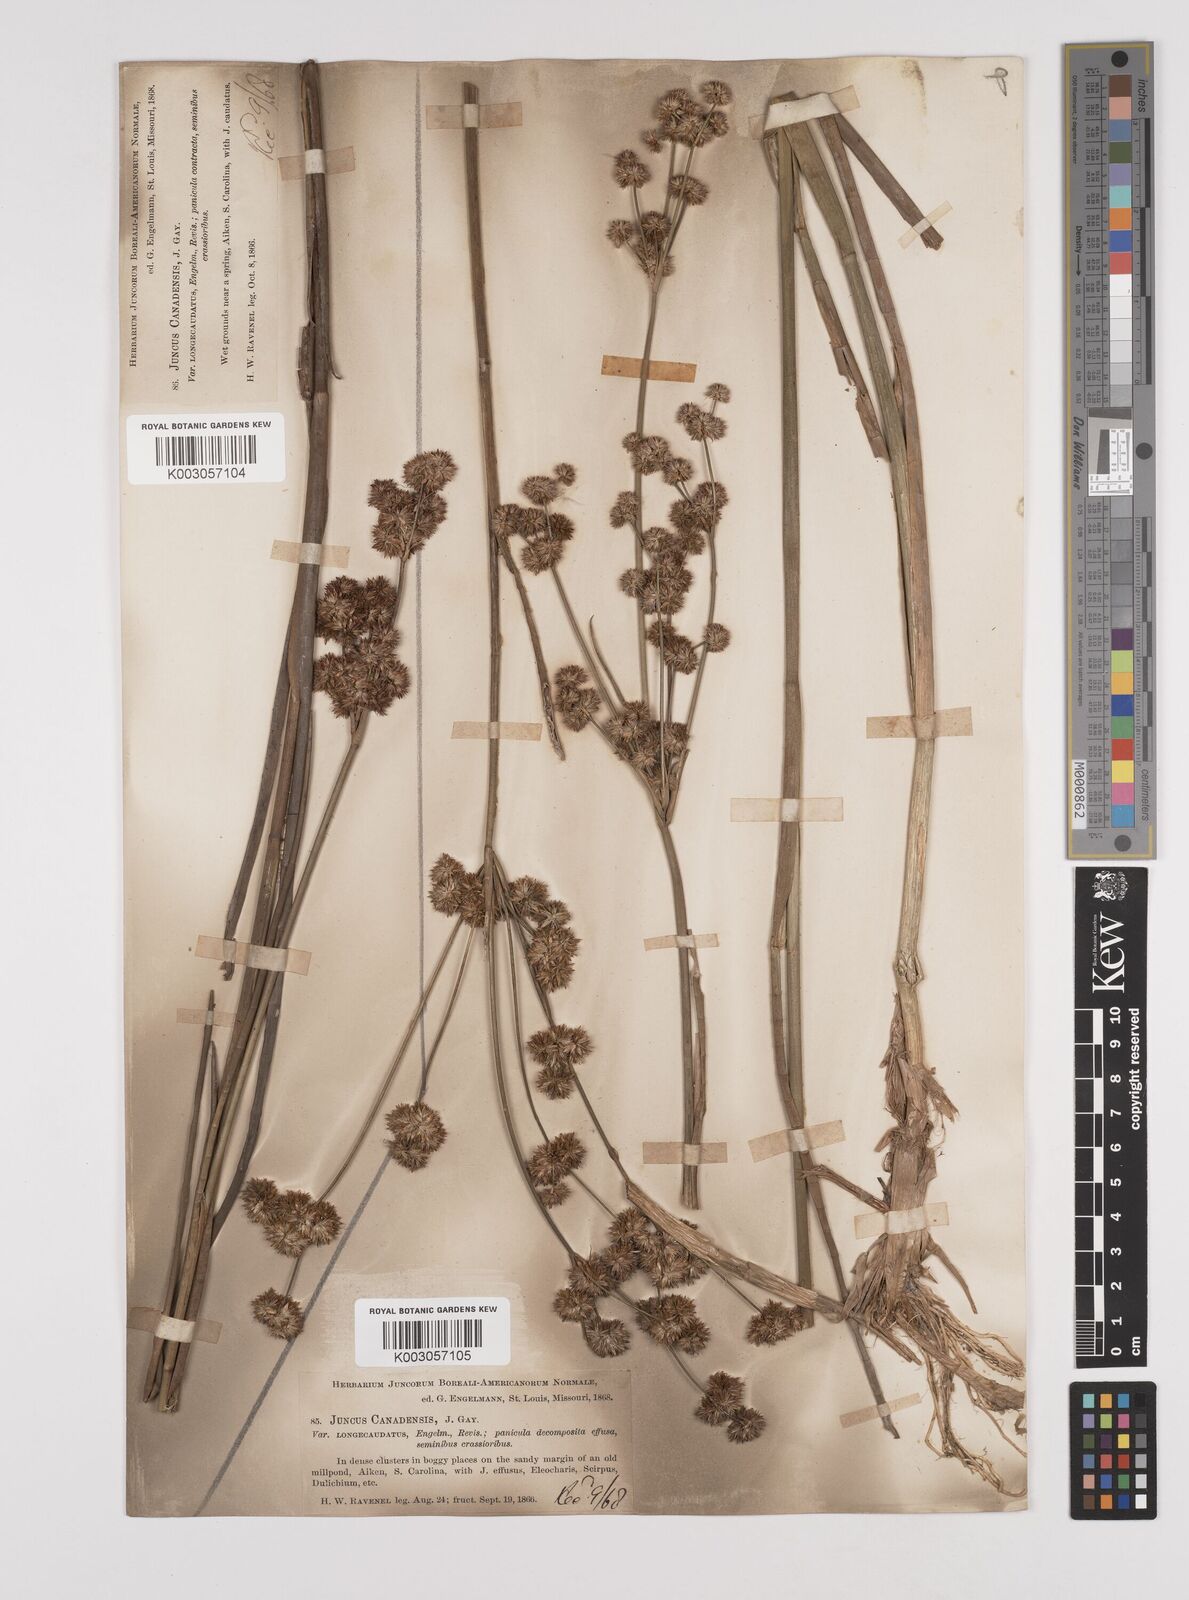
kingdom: Plantae
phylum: Tracheophyta
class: Liliopsida
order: Poales
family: Juncaceae
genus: Juncus
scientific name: Juncus canadensis
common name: Canada rush
